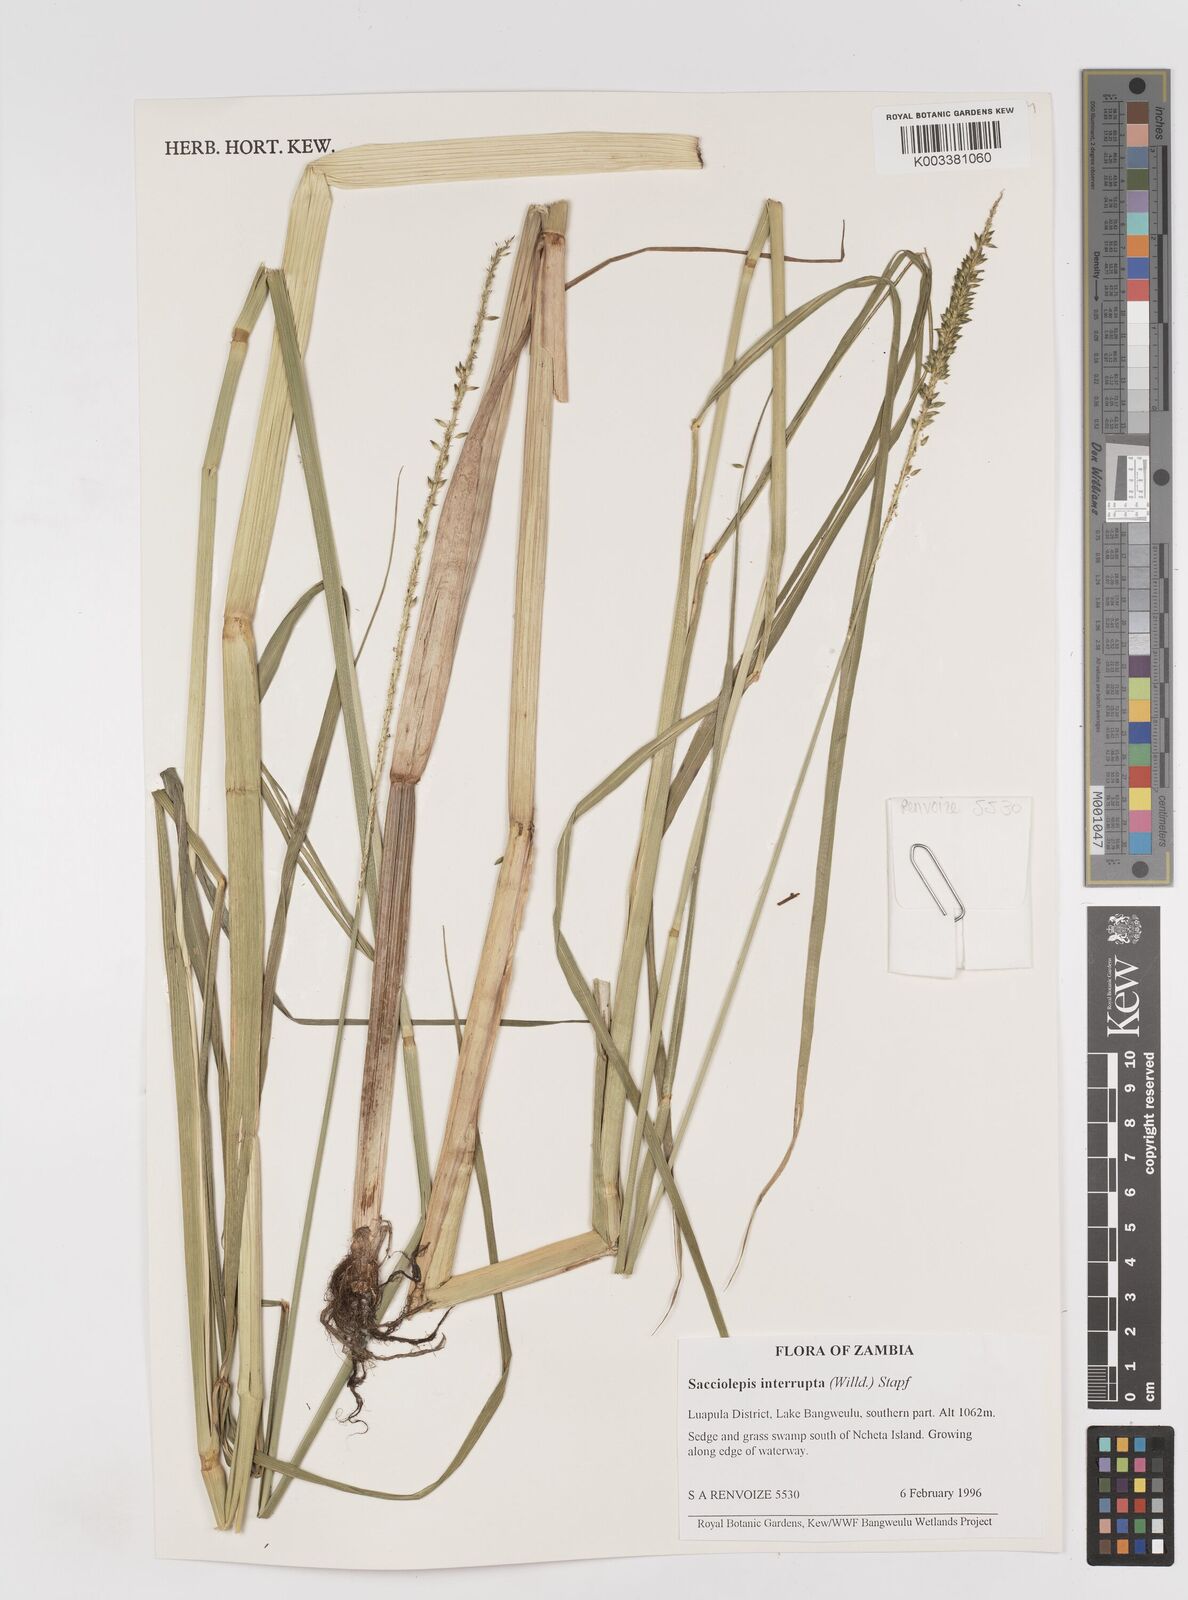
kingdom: Plantae
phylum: Tracheophyta
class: Liliopsida
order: Poales
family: Poaceae
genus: Sacciolepis
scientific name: Sacciolepis interrupta
